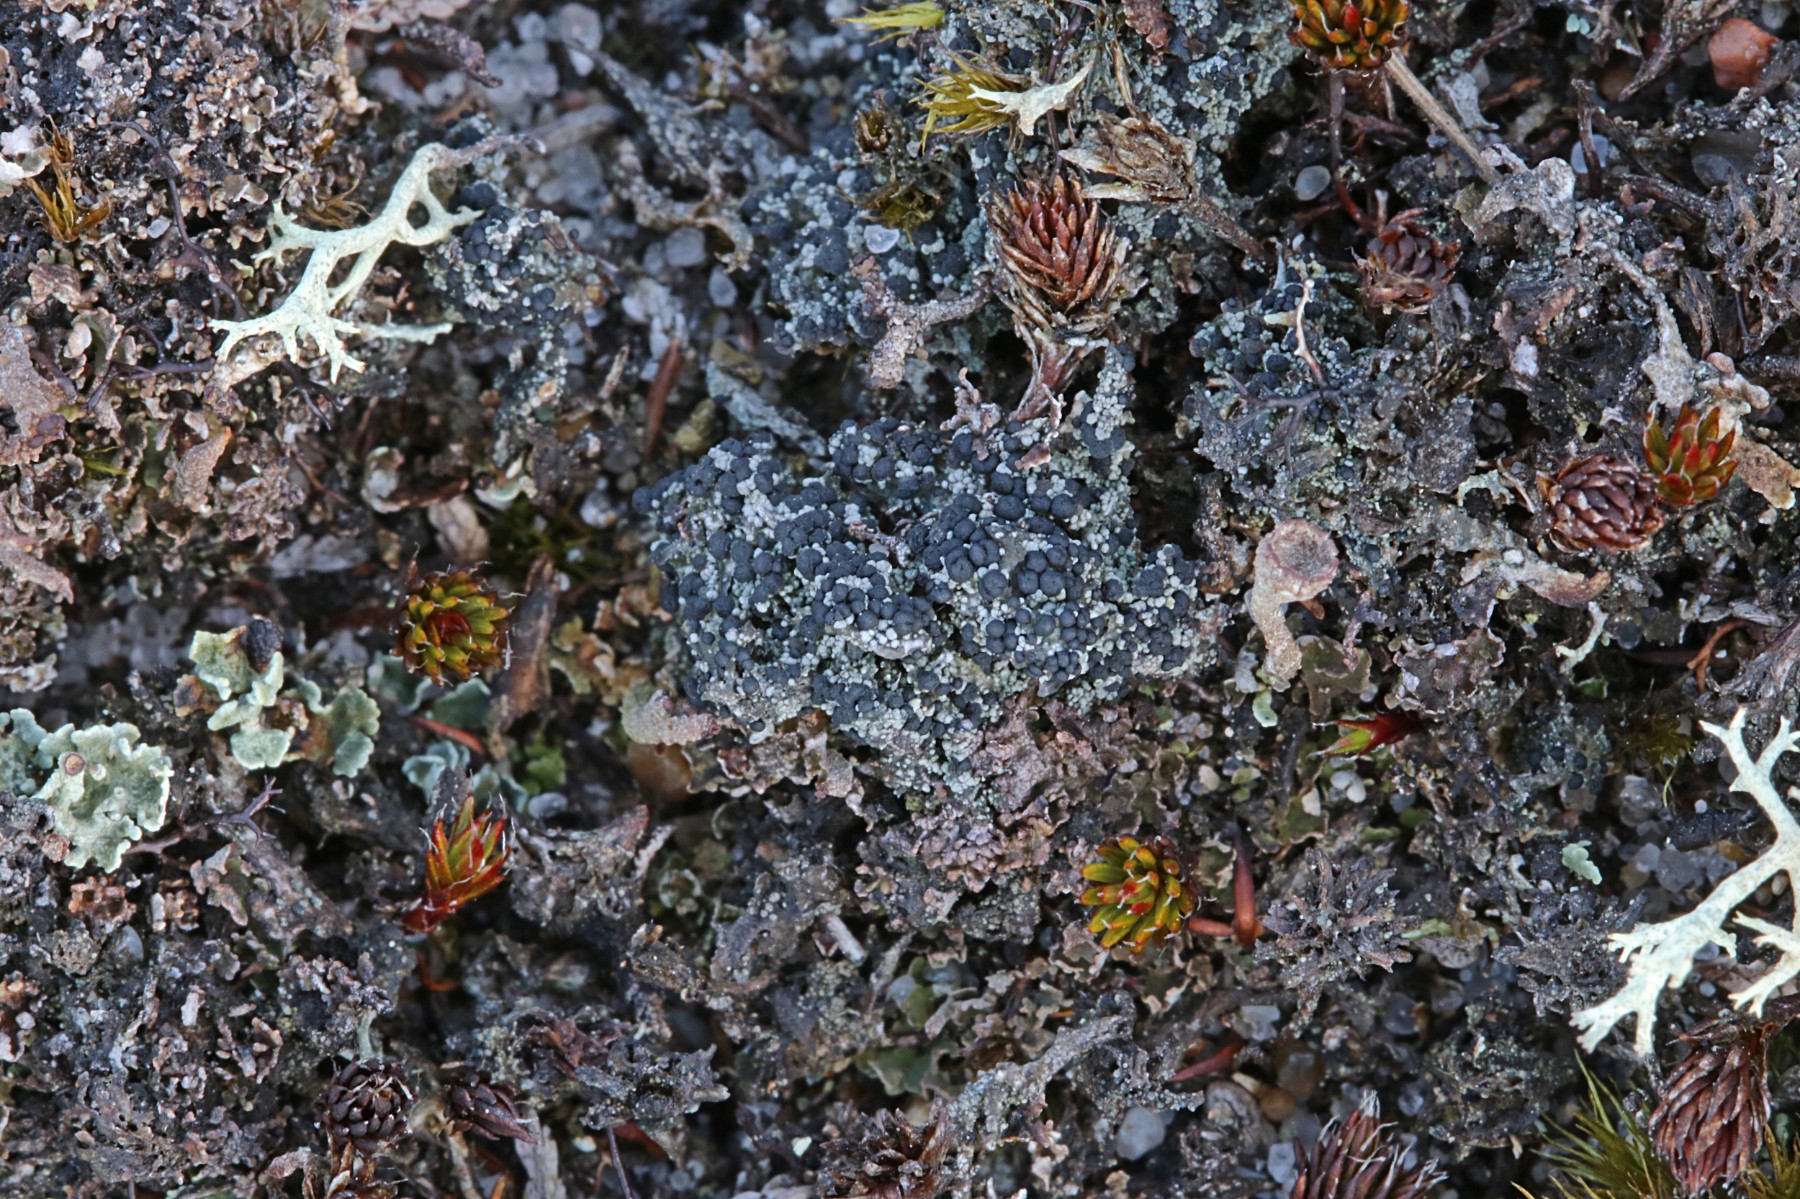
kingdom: Fungi
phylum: Ascomycota
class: Lecanoromycetes
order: Lecanorales
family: Byssolomataceae
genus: Micarea
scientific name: Micarea lignaria
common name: tørve-knaplav
